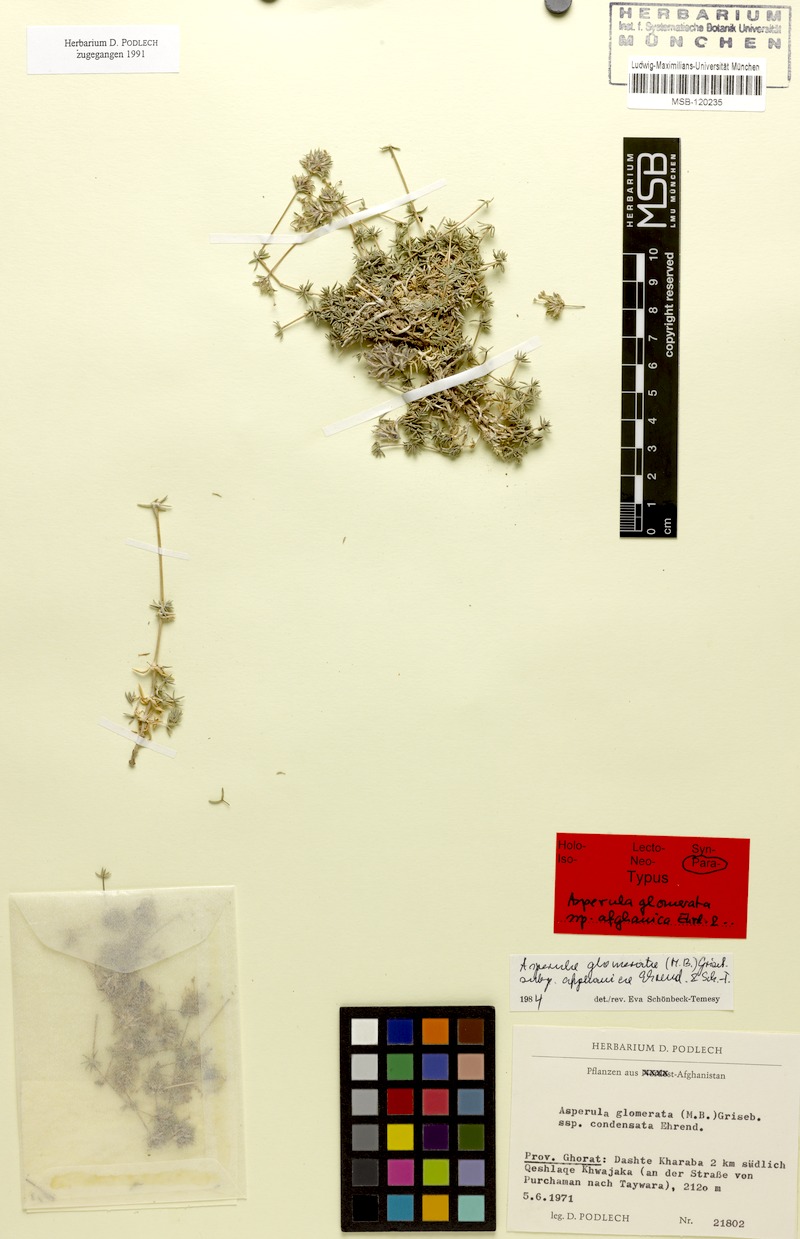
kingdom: Plantae
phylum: Tracheophyta
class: Magnoliopsida
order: Gentianales
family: Rubiaceae
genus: Asperula
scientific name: Asperula glomerata
